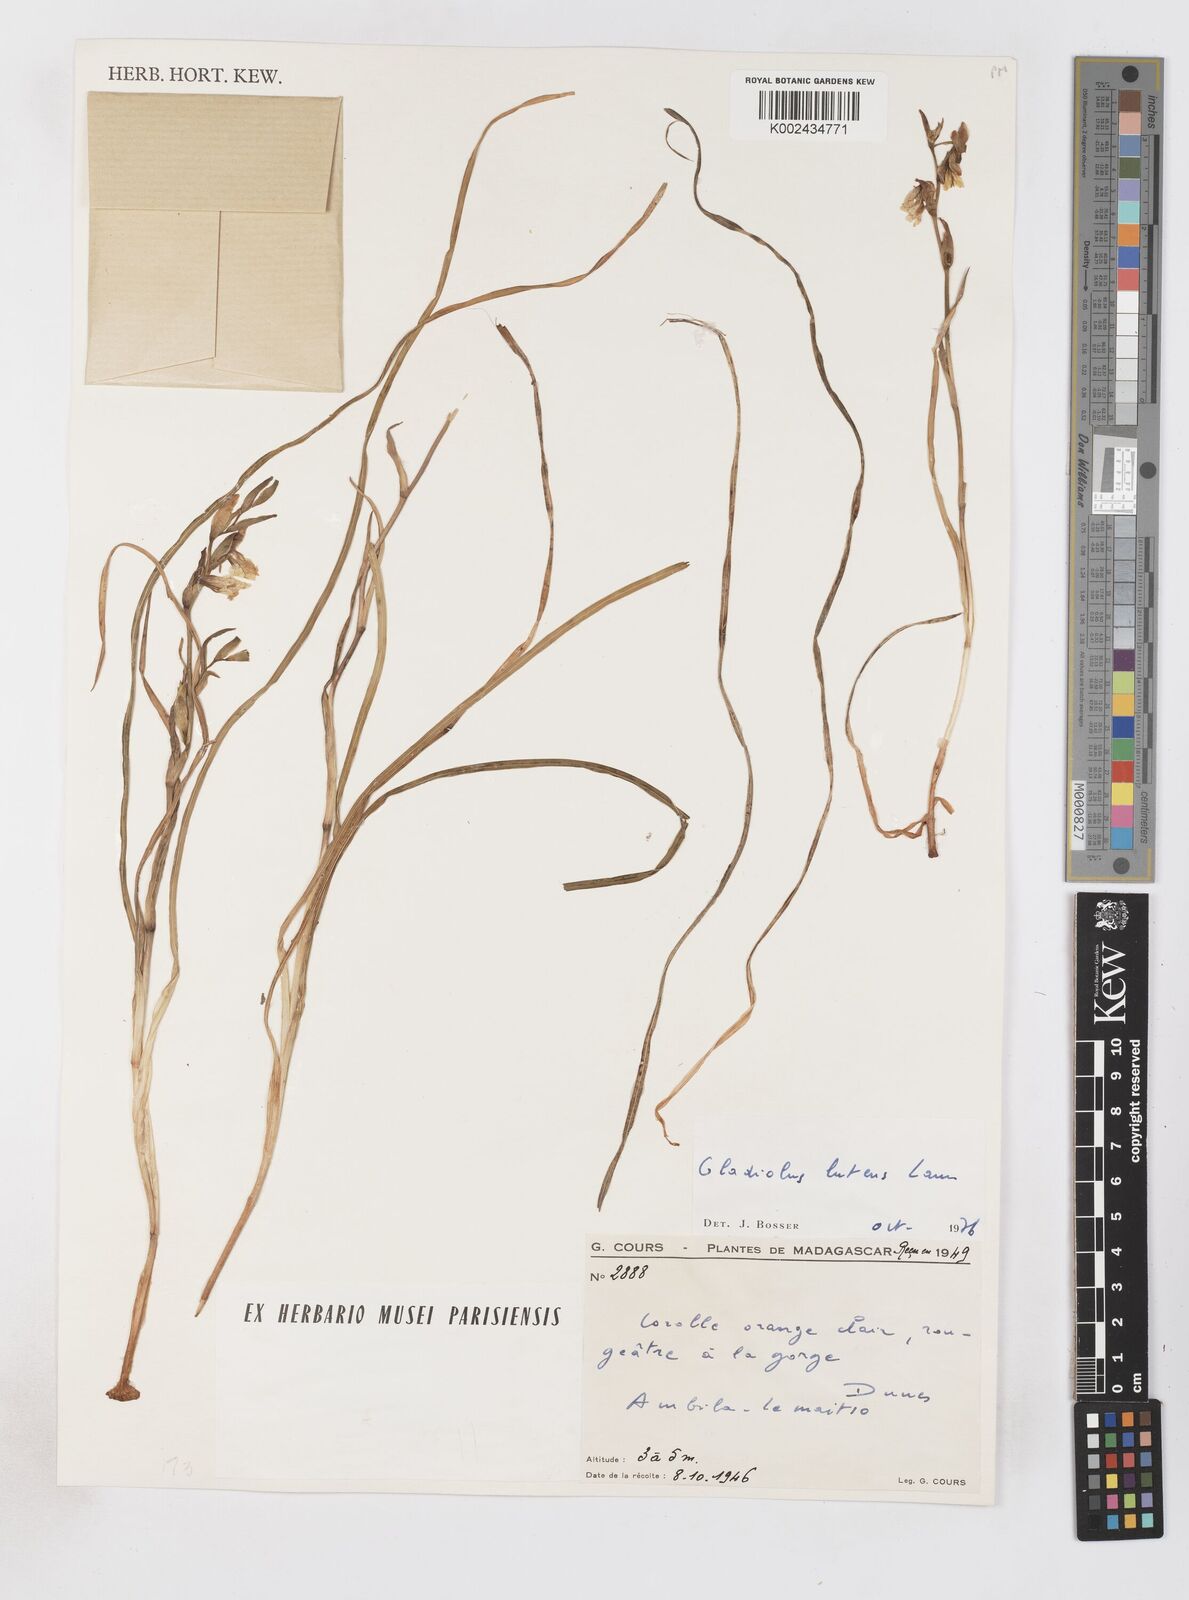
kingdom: Plantae
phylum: Tracheophyta
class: Liliopsida
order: Asparagales
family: Iridaceae
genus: Gladiolus
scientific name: Gladiolus luteus
